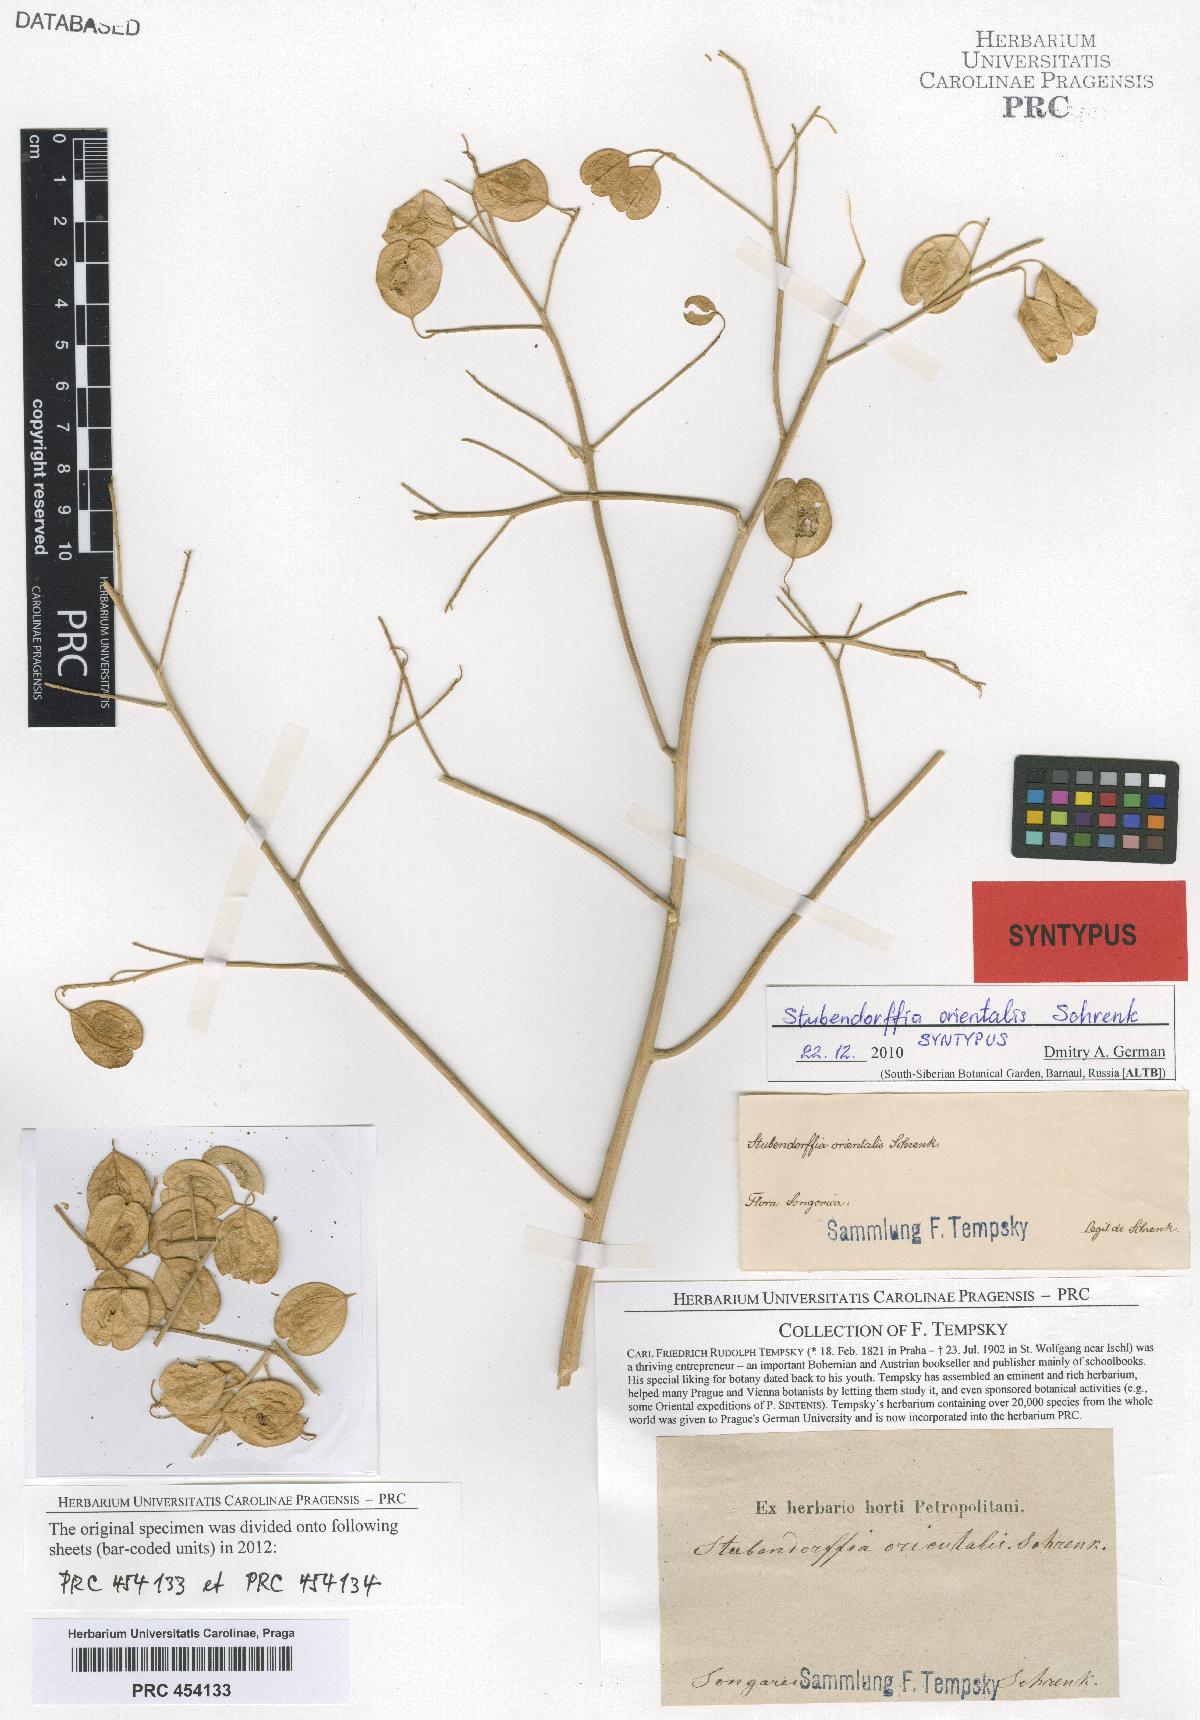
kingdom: Plantae
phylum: Tracheophyta
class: Magnoliopsida
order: Brassicales
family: Brassicaceae
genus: Lepidium
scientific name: Lepidium orientale
